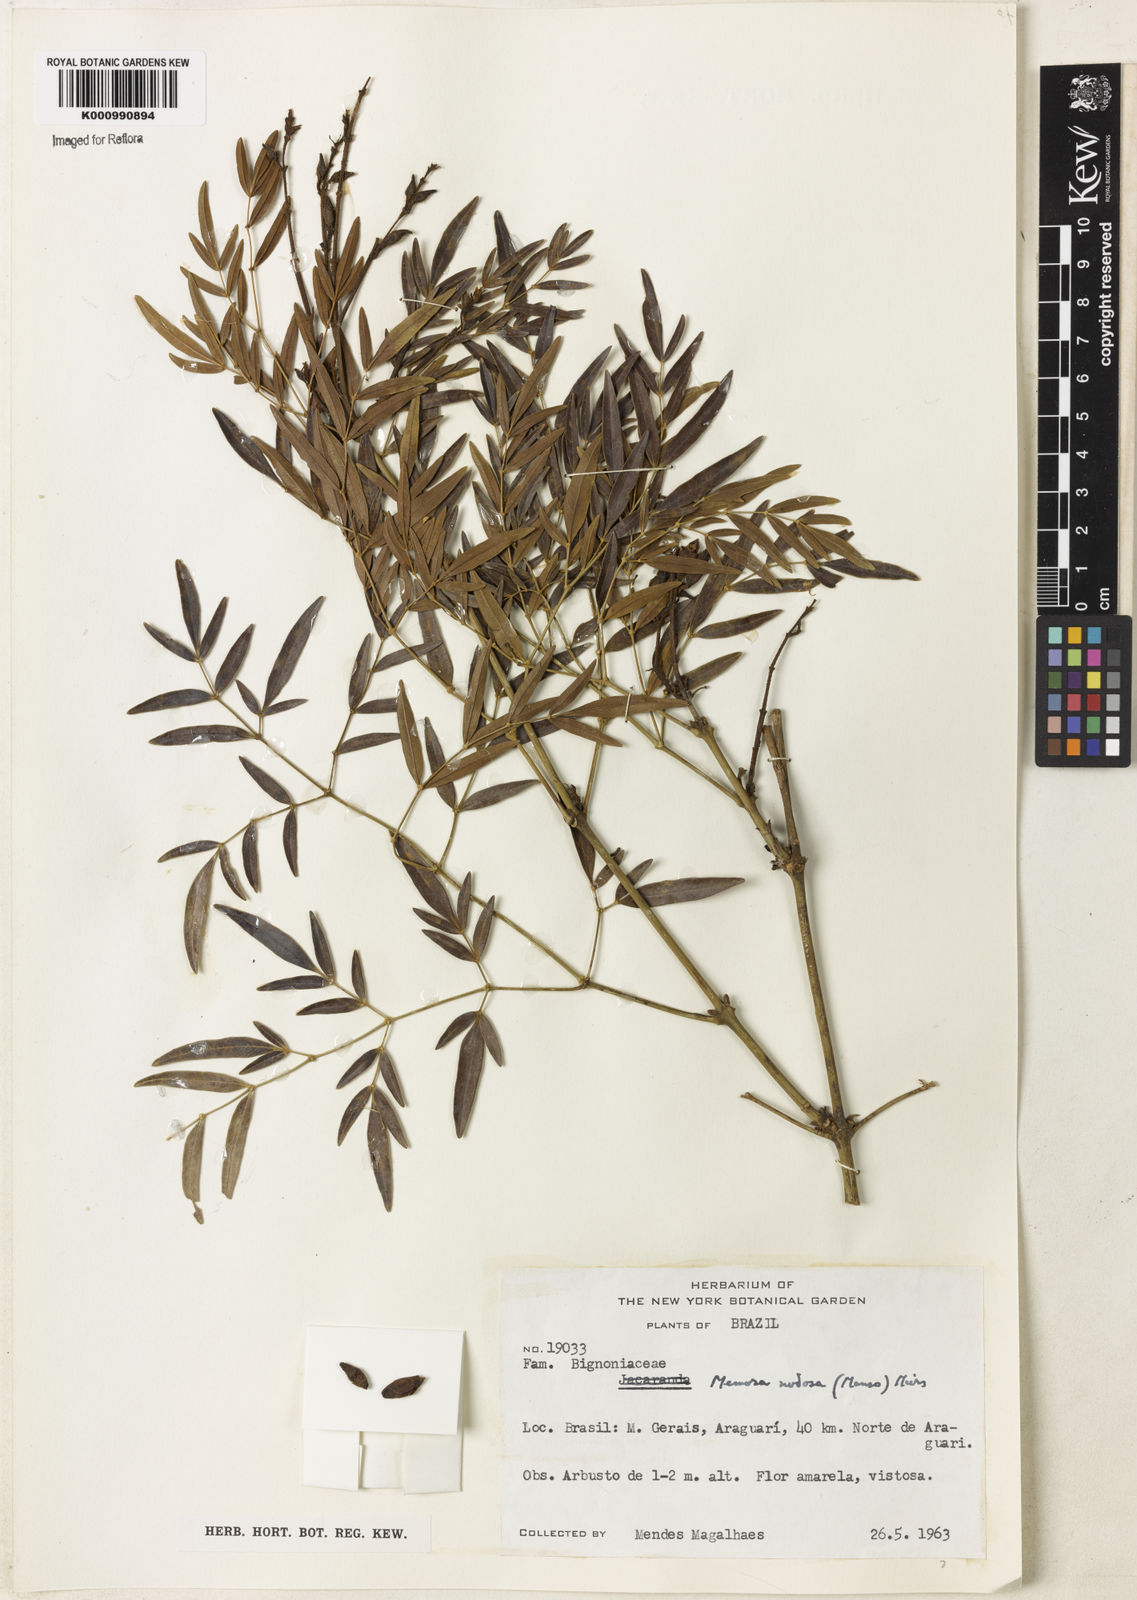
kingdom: Plantae
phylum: Tracheophyta
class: Magnoliopsida
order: Lamiales
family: Bignoniaceae
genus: Adenocalymma
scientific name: Adenocalymma nodosum
